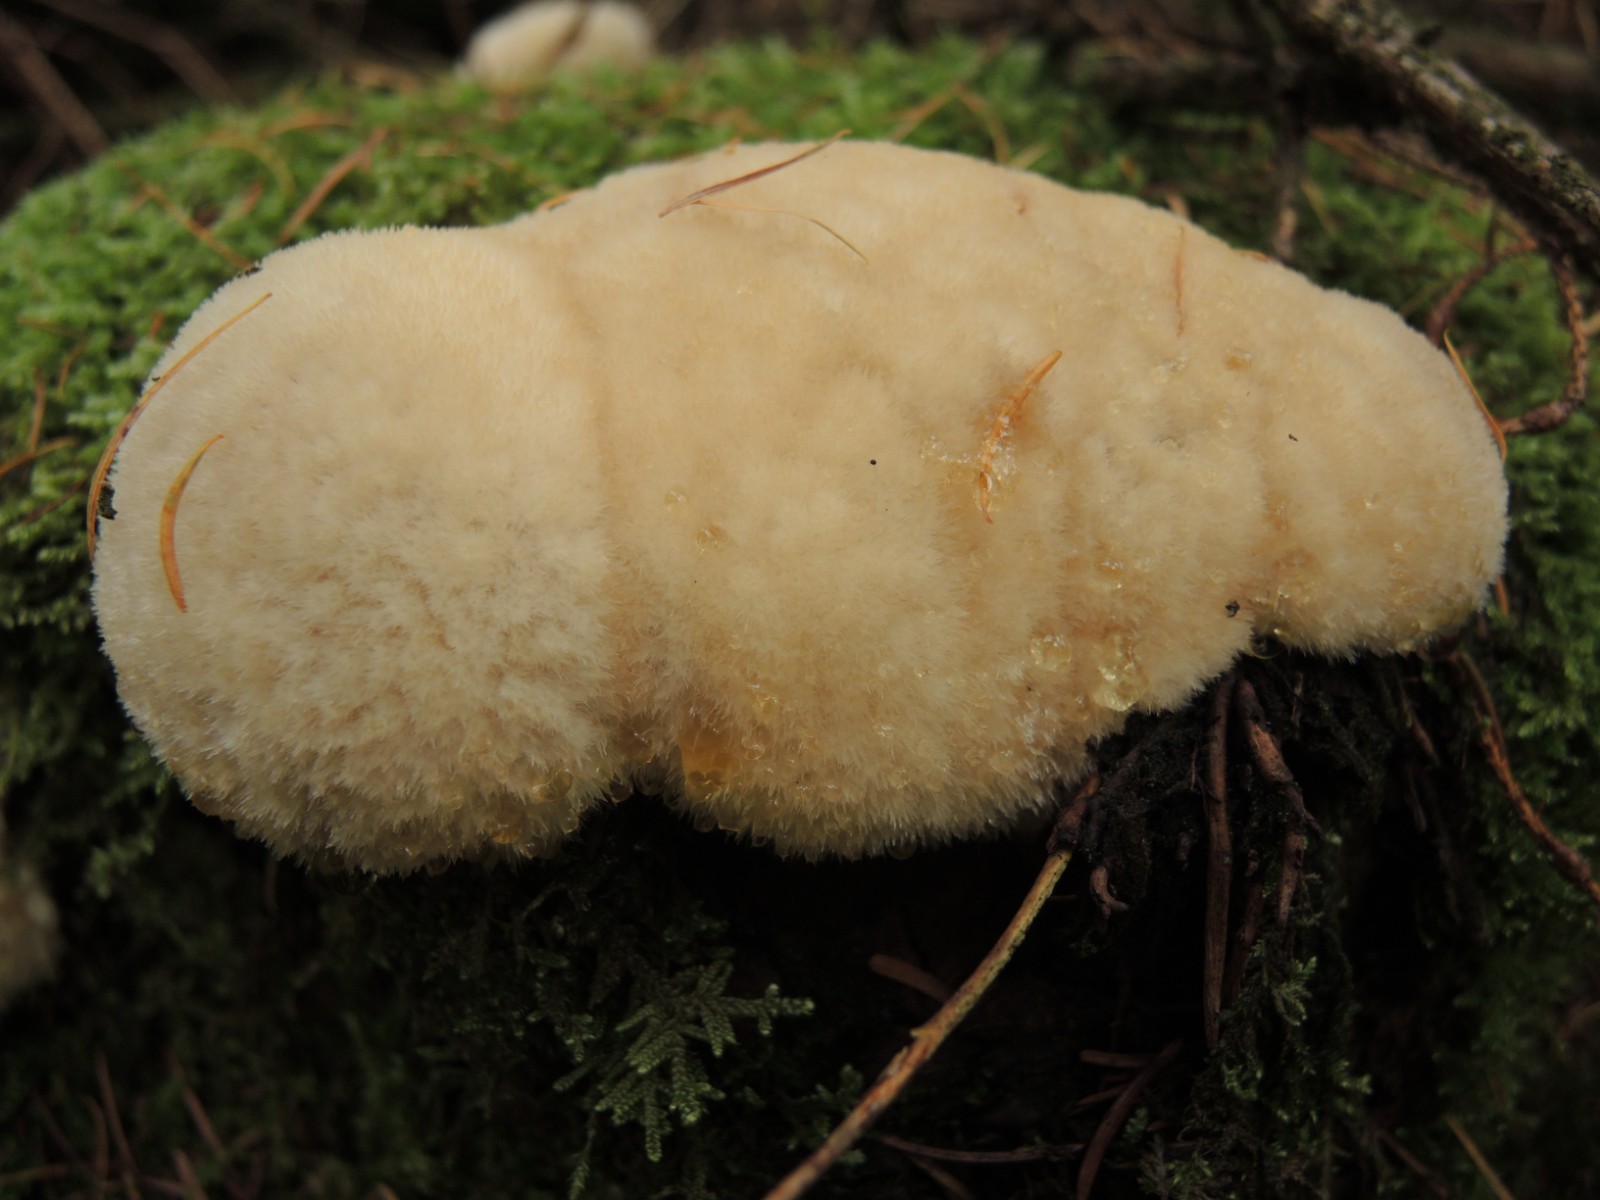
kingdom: Fungi
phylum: Basidiomycota
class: Agaricomycetes
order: Polyporales
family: Dacryobolaceae
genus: Postia
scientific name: Postia ptychogaster
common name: støvende kødporesvamp
